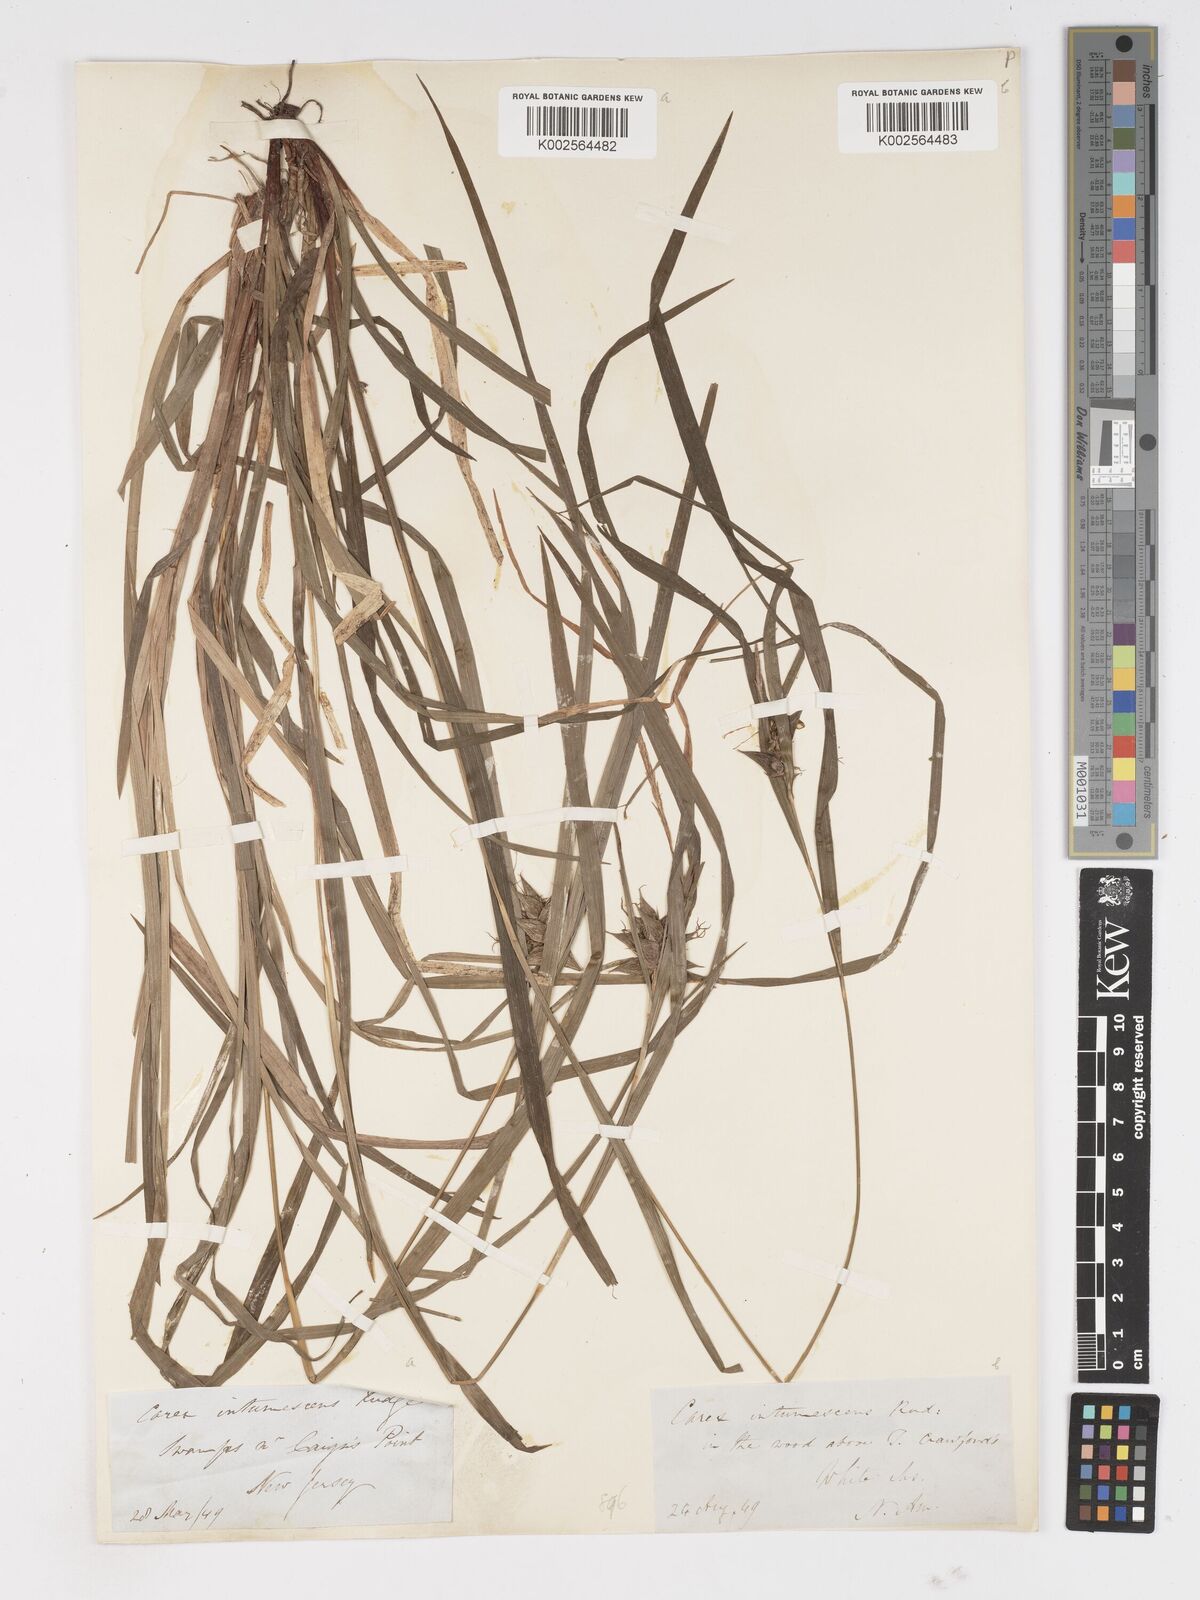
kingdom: Plantae
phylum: Tracheophyta
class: Liliopsida
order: Poales
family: Cyperaceae
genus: Carex
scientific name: Carex intumescens
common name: Greater bladder sedge
